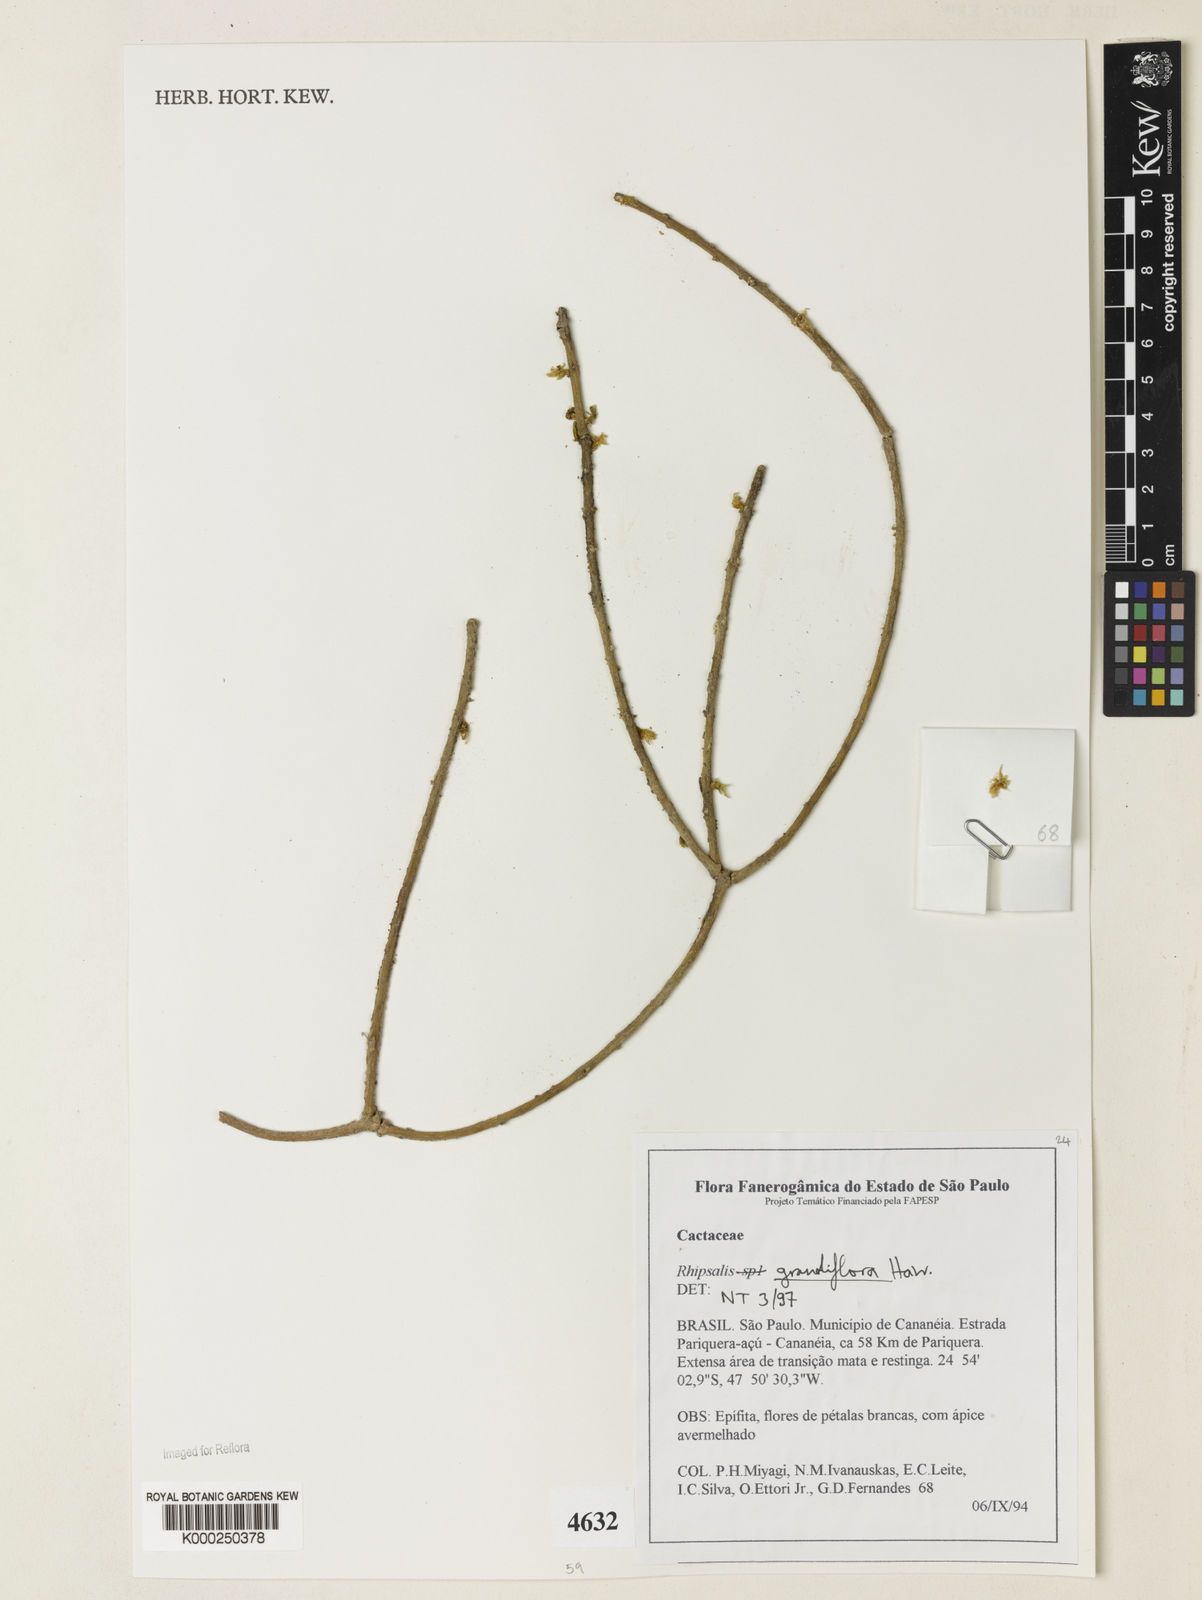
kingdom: Plantae
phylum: Tracheophyta
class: Magnoliopsida
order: Caryophyllales
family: Cactaceae
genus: Rhipsalis
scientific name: Rhipsalis grandiflora
